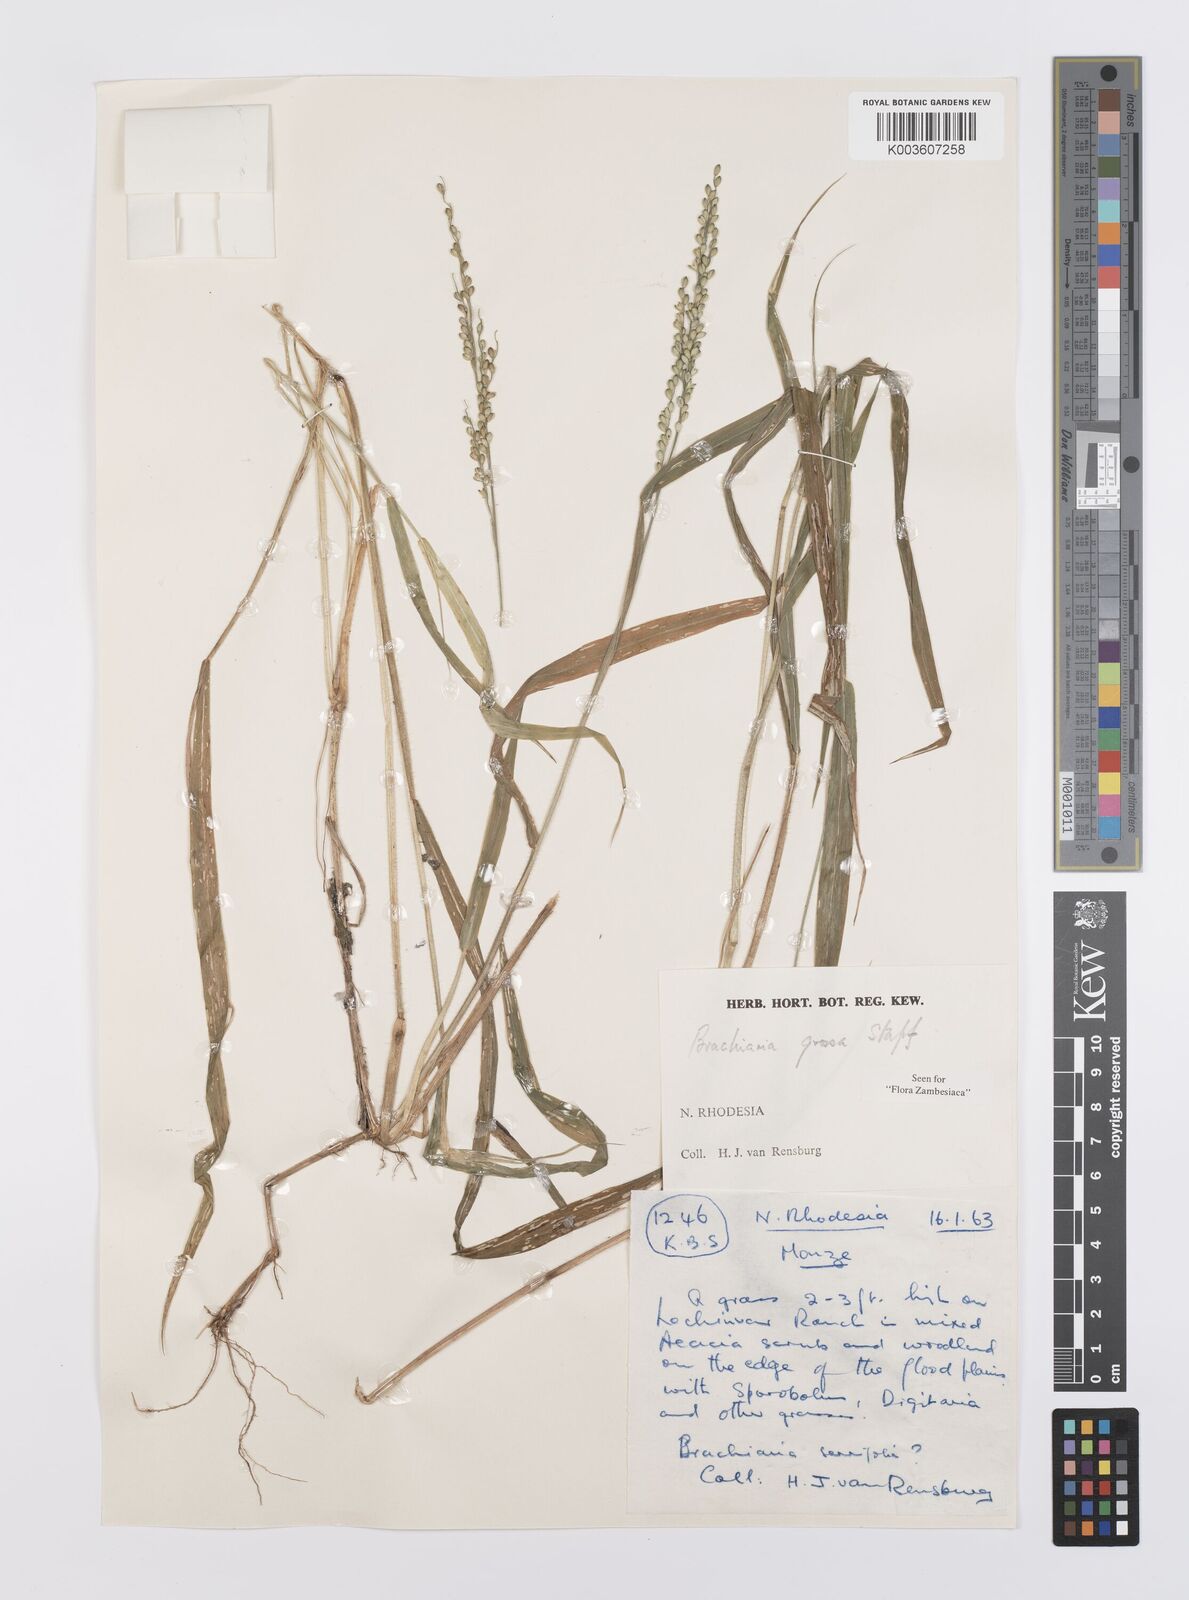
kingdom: Plantae
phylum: Tracheophyta
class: Liliopsida
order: Poales
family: Poaceae
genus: Urochloa
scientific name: Urochloa Brachiaria grossa
